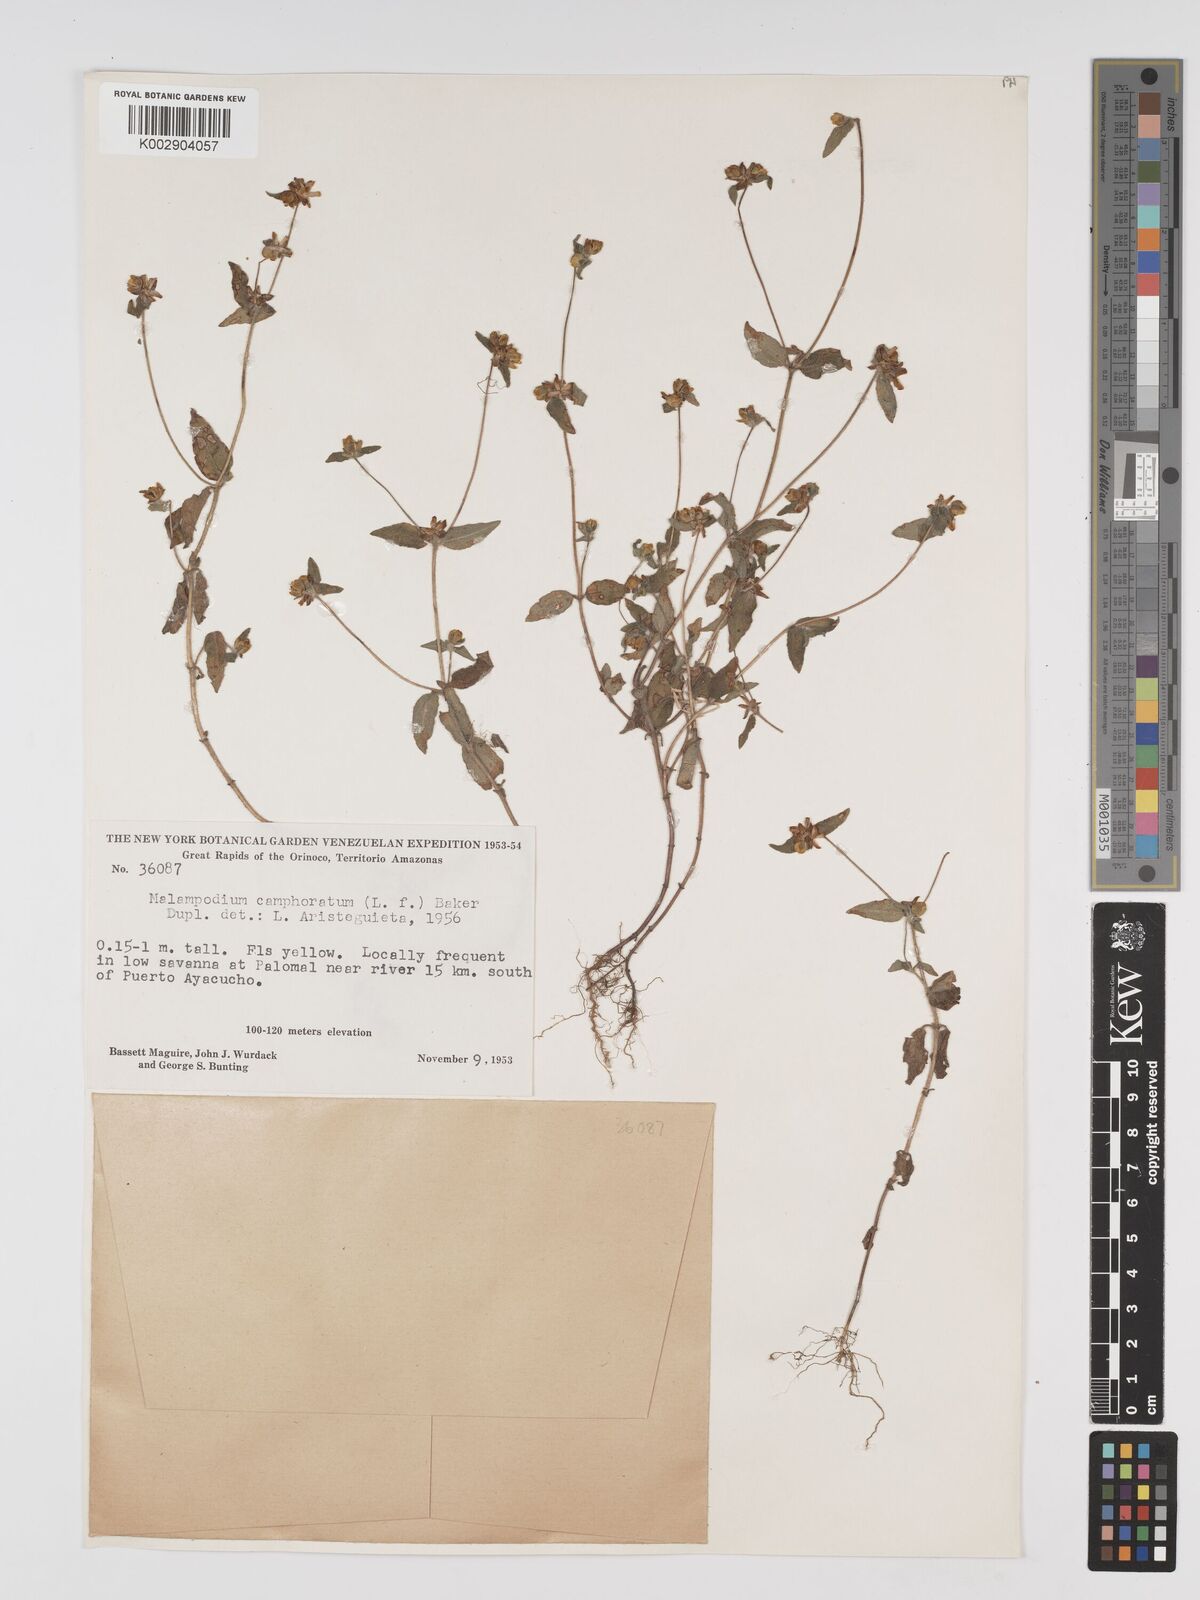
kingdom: Plantae
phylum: Tracheophyta
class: Magnoliopsida
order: Asterales
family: Asteraceae
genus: Unxia
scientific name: Unxia camphorata
